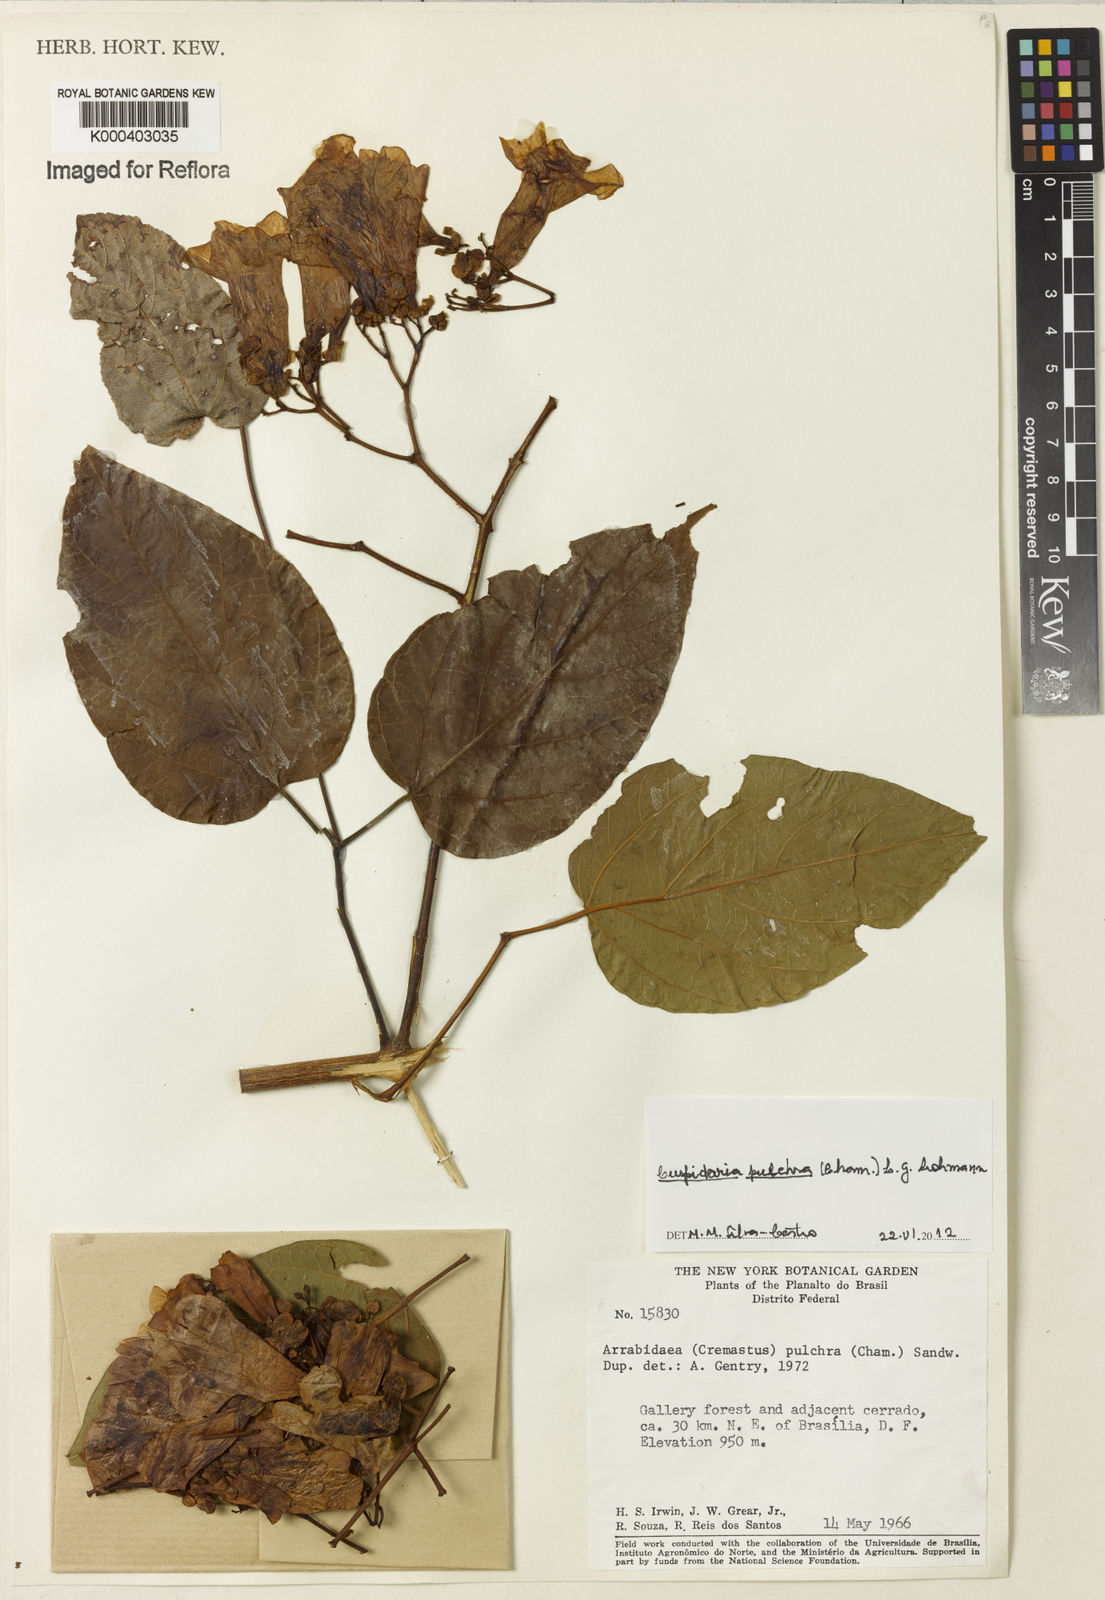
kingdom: Plantae
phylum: Tracheophyta
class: Magnoliopsida
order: Lamiales
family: Bignoniaceae
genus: Cuspidaria
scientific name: Cuspidaria pulchra
